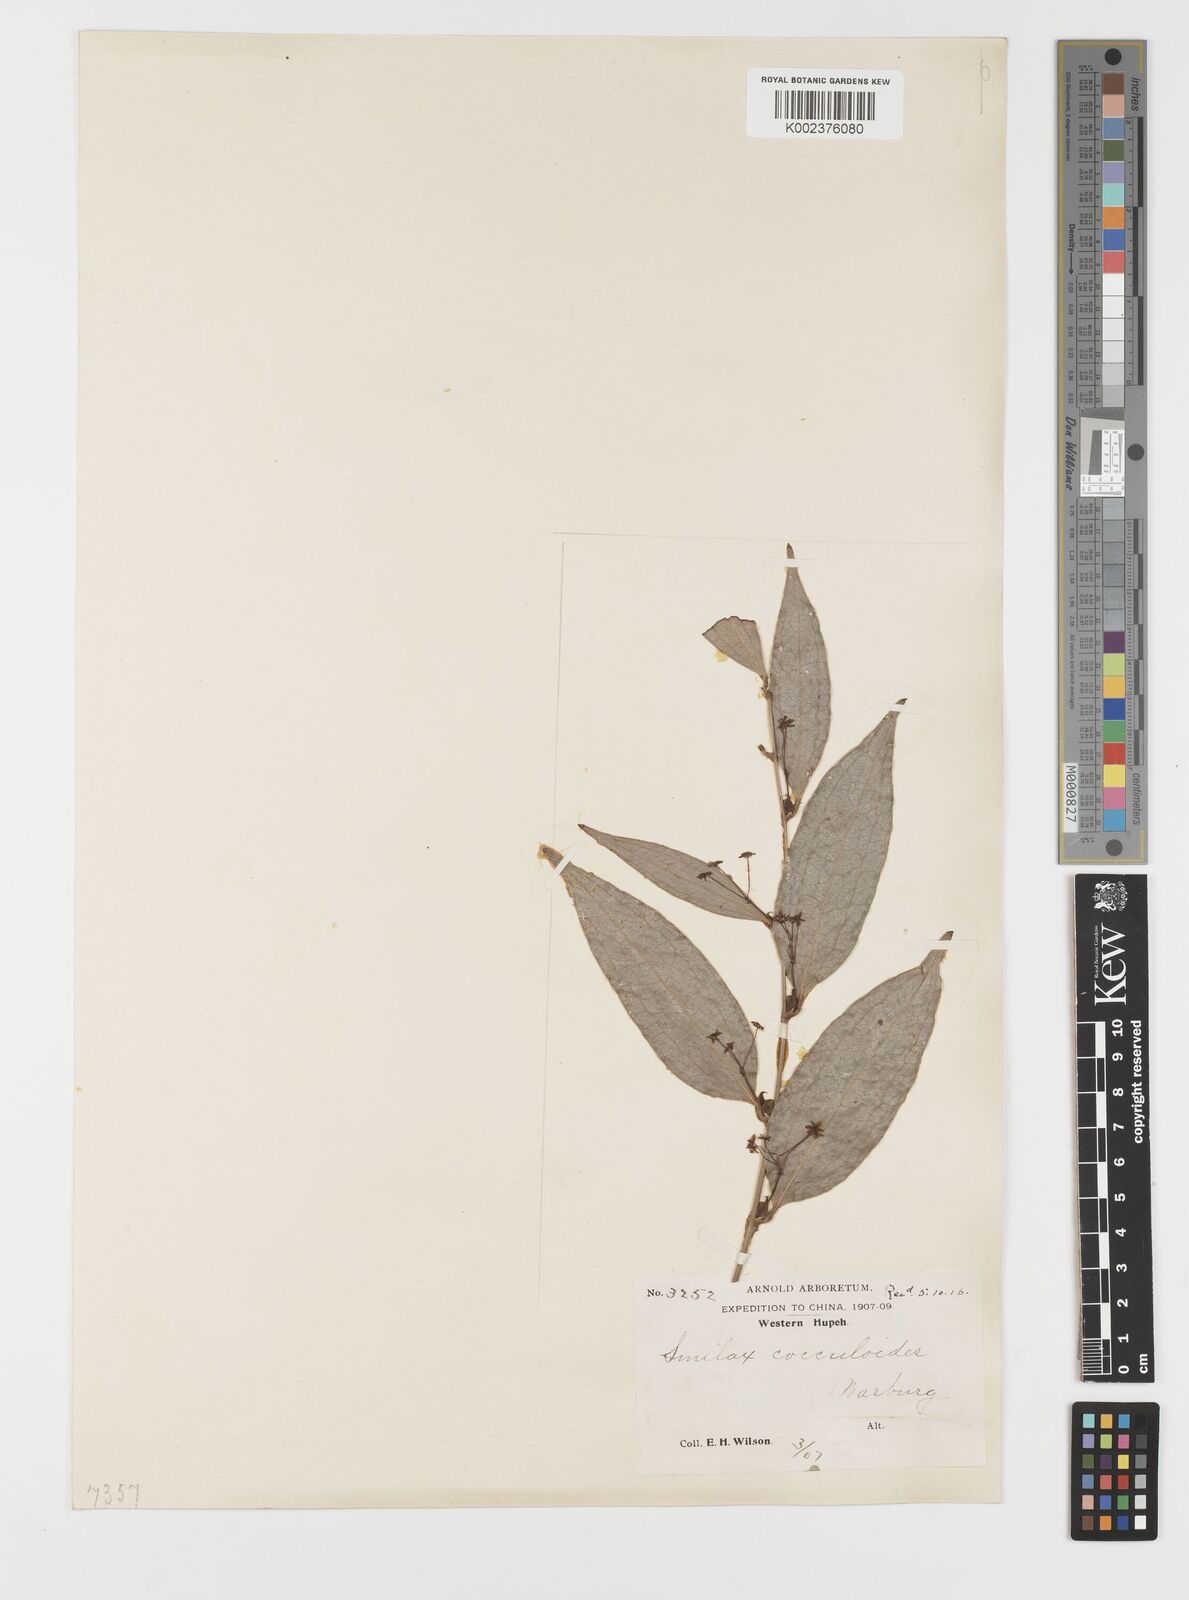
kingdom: Plantae
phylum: Tracheophyta
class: Liliopsida
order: Liliales
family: Smilacaceae
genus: Smilax
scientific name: Smilax cocculoides
